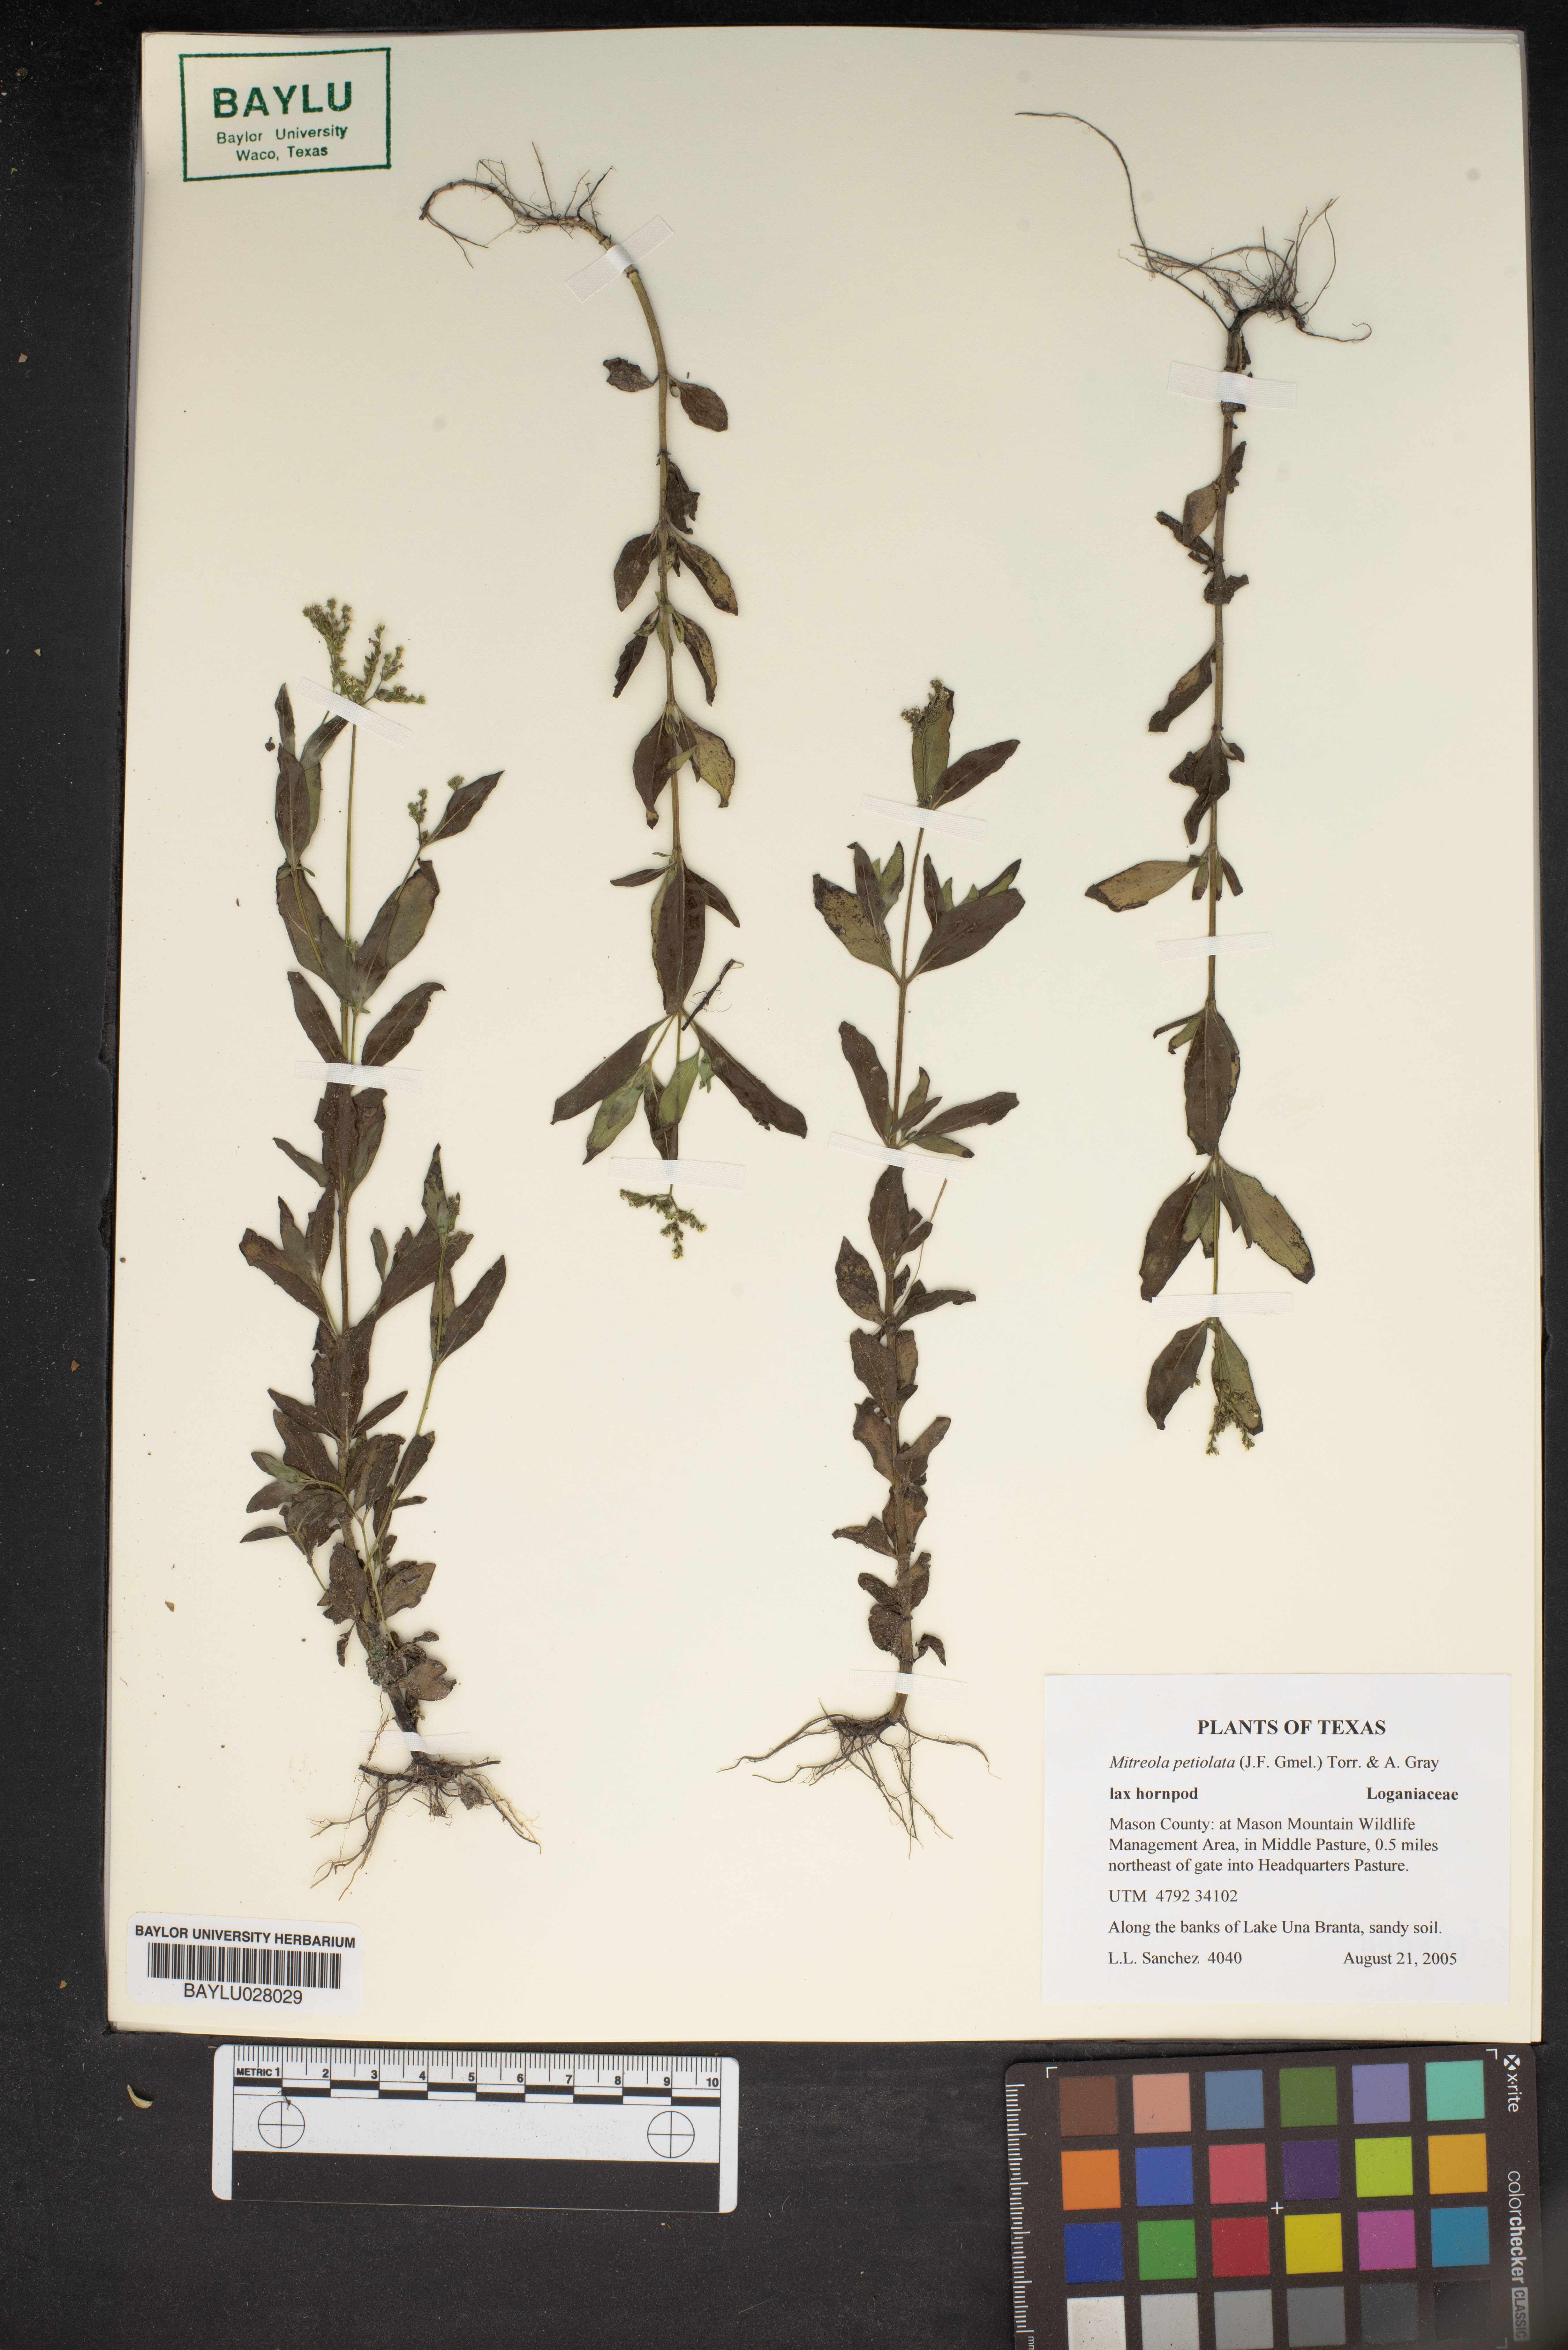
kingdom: Plantae
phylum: Tracheophyta
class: Magnoliopsida
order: Gentianales
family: Loganiaceae
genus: Mitreola
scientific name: Mitreola petiolata
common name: Lax hornpod
